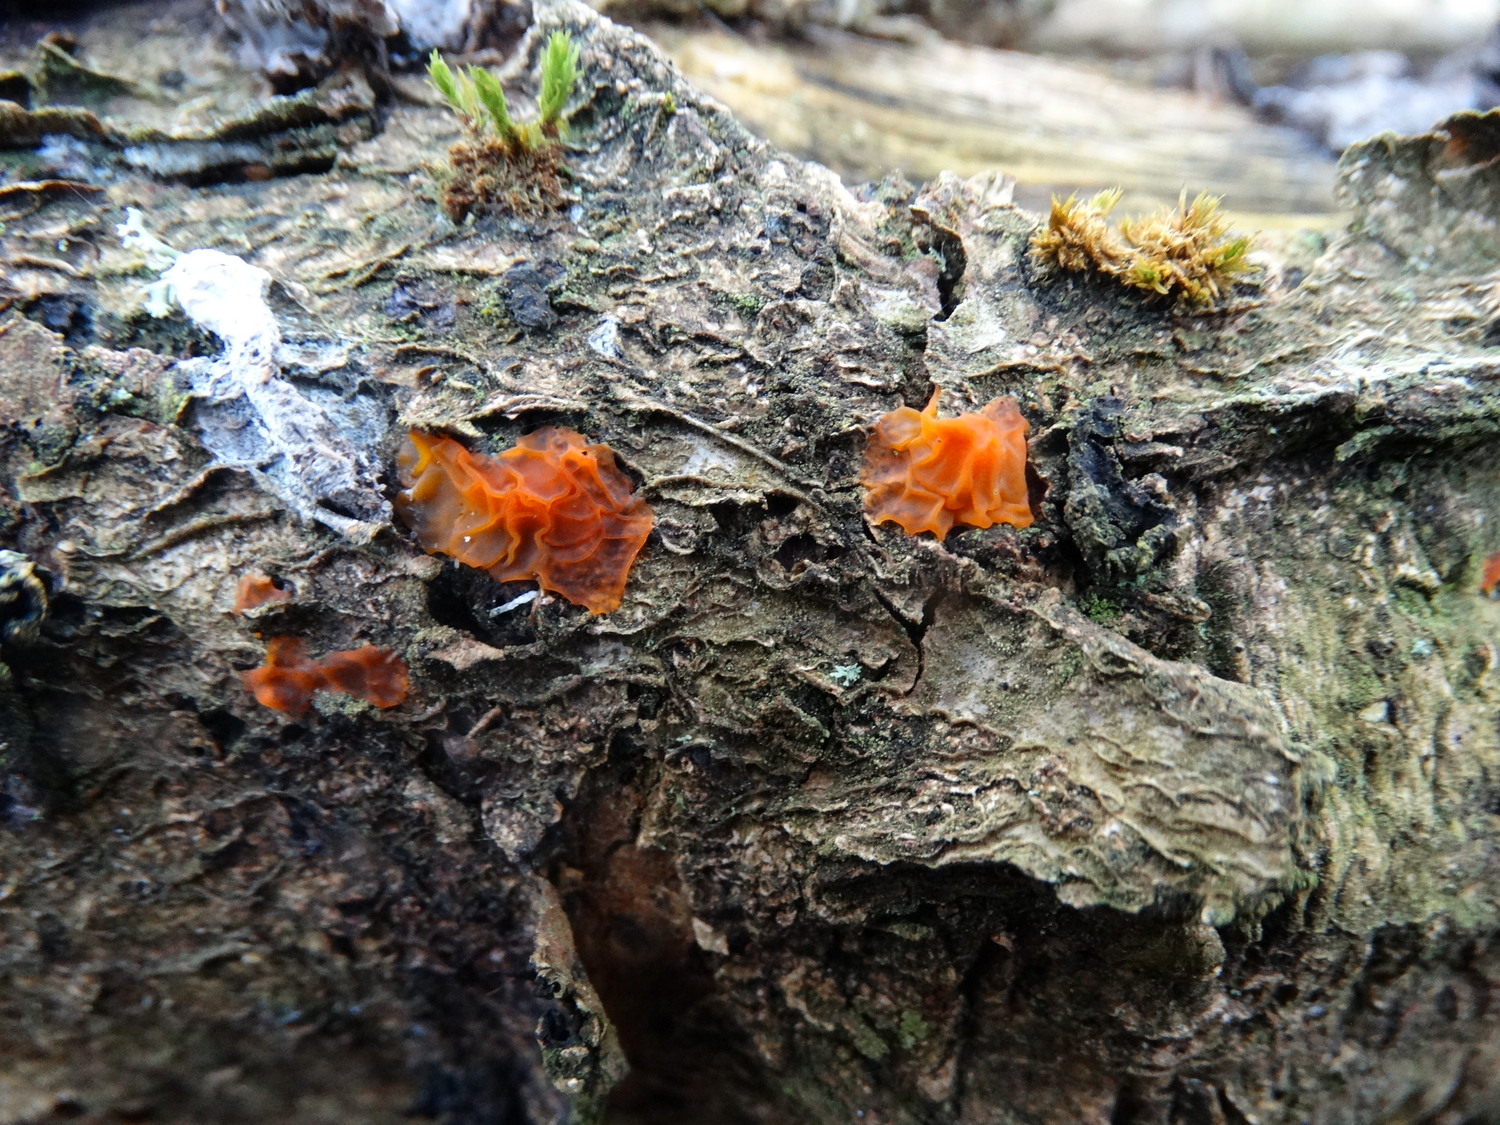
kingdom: Fungi
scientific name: Fungi
